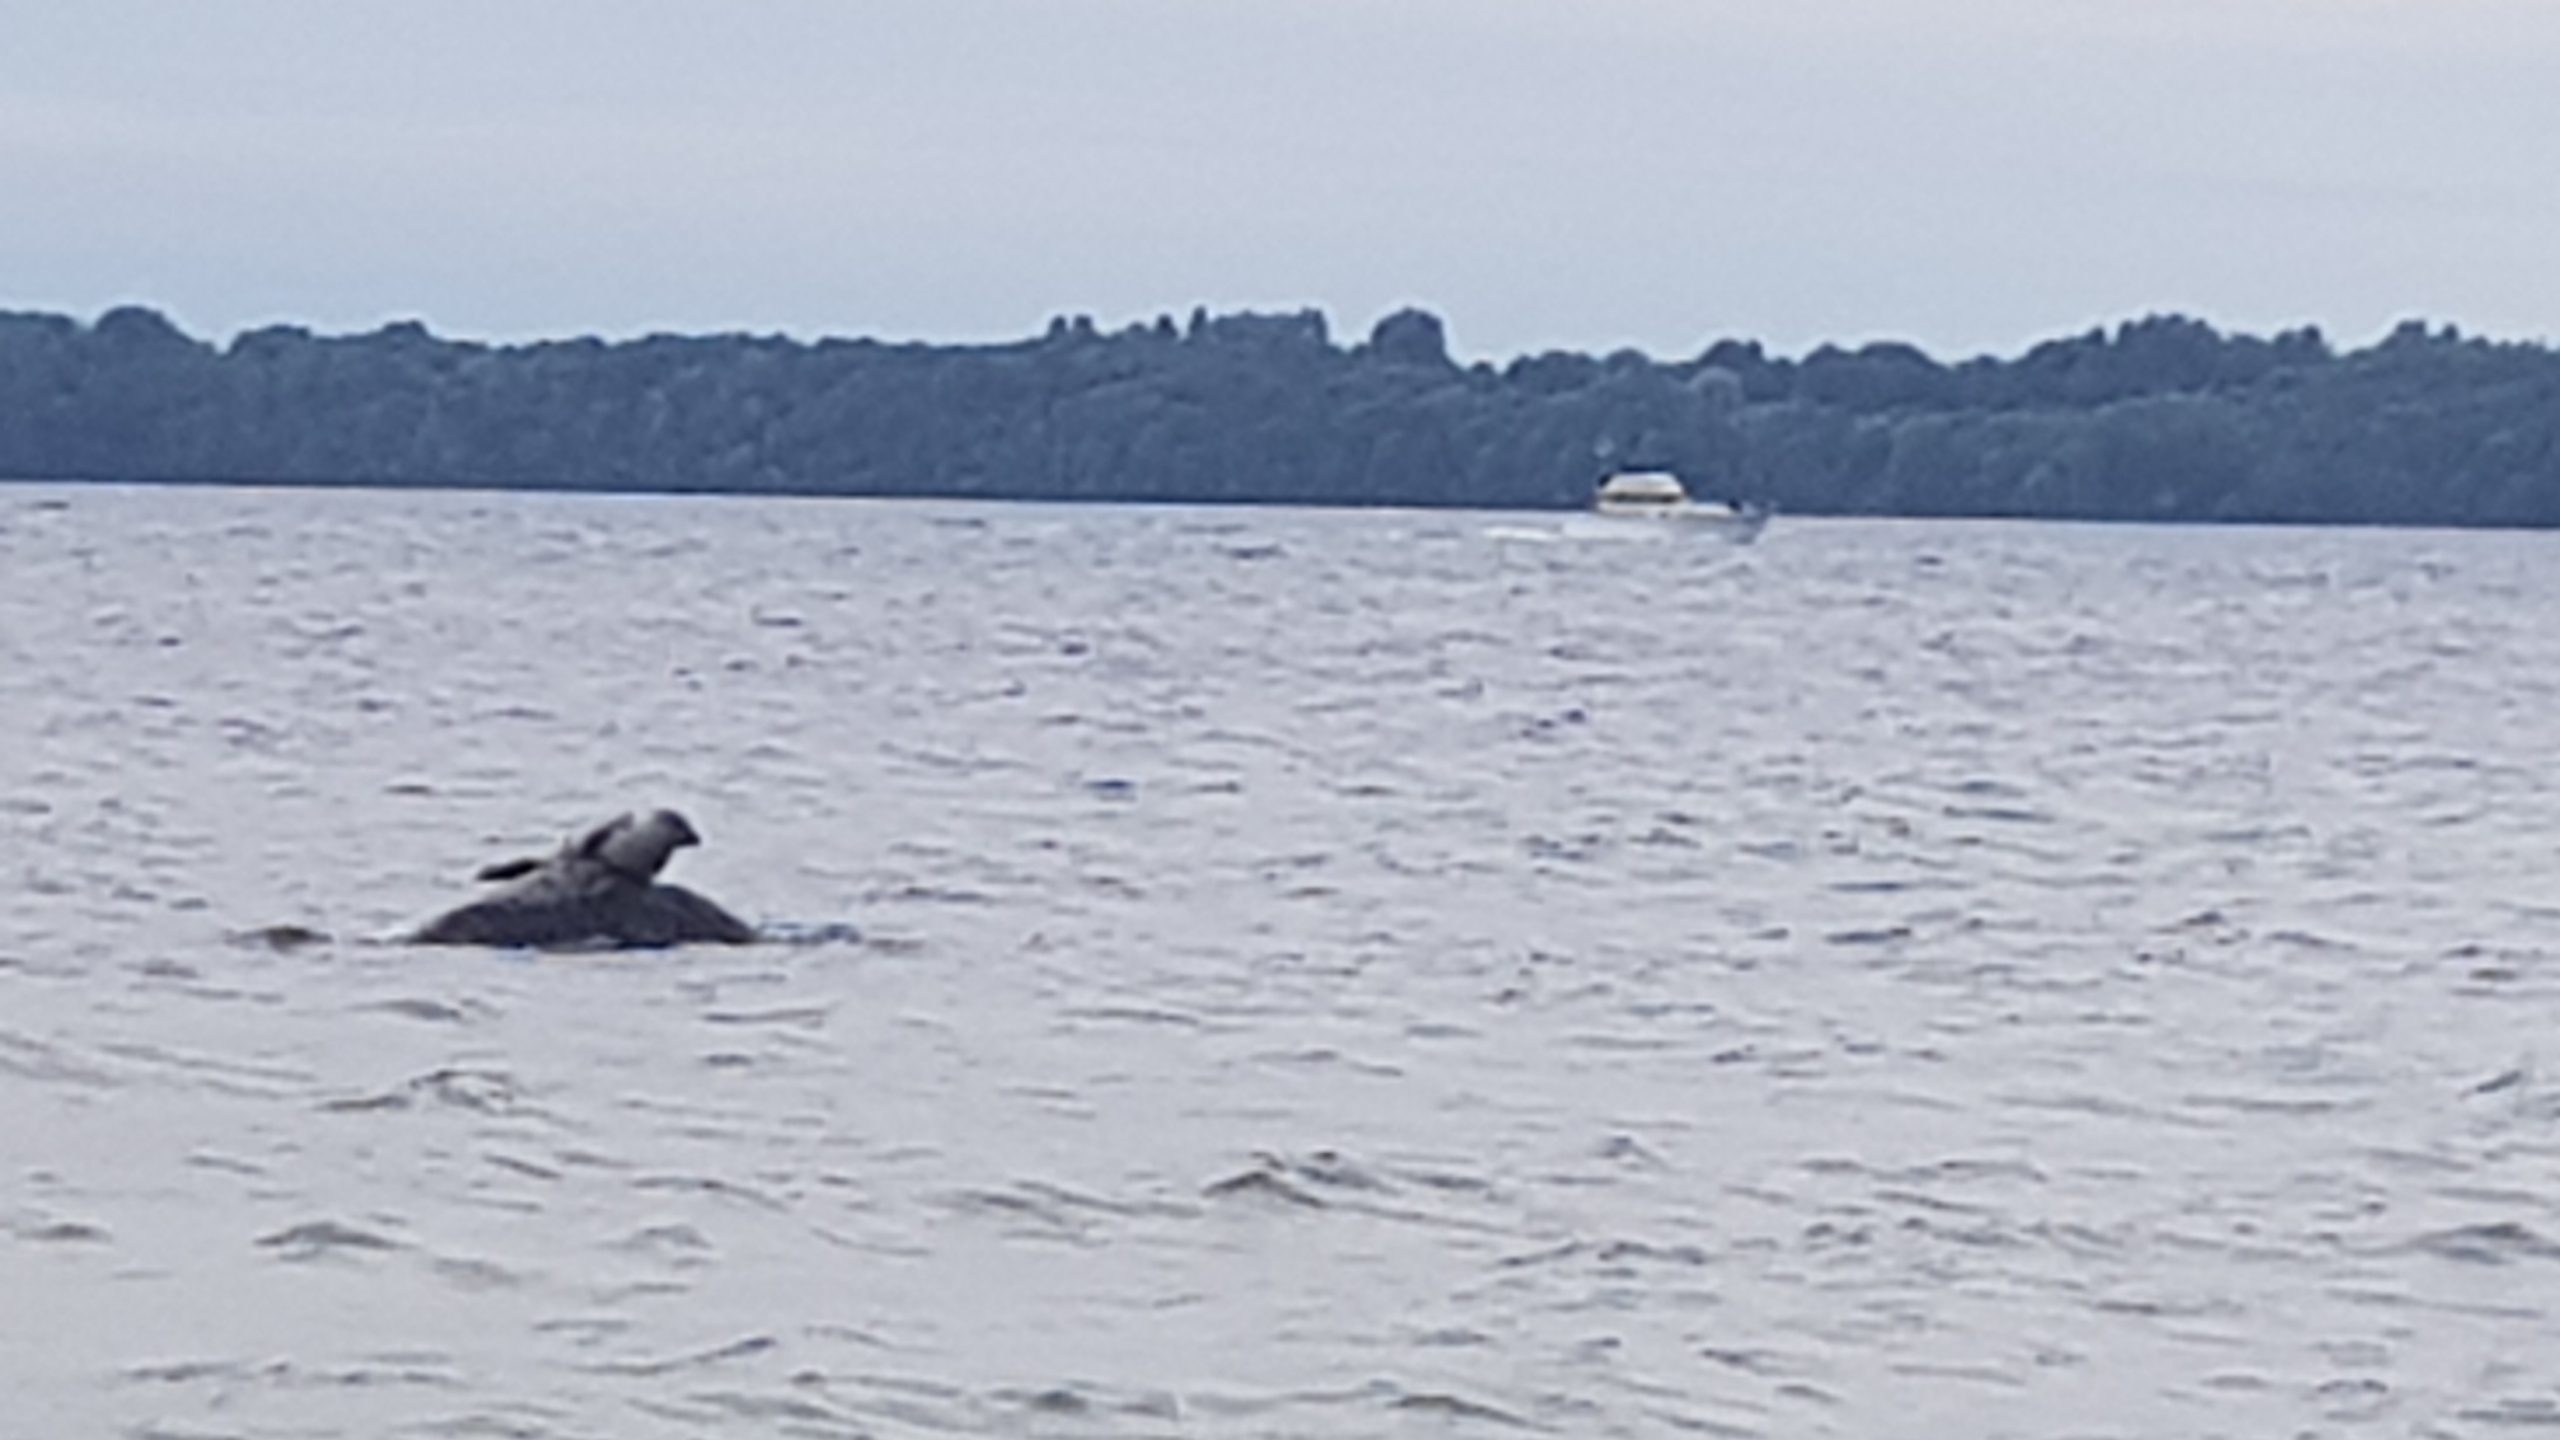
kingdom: Animalia
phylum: Chordata
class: Mammalia
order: Carnivora
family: Phocidae
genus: Phoca
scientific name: Phoca vitulina
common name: Spættet sæl
